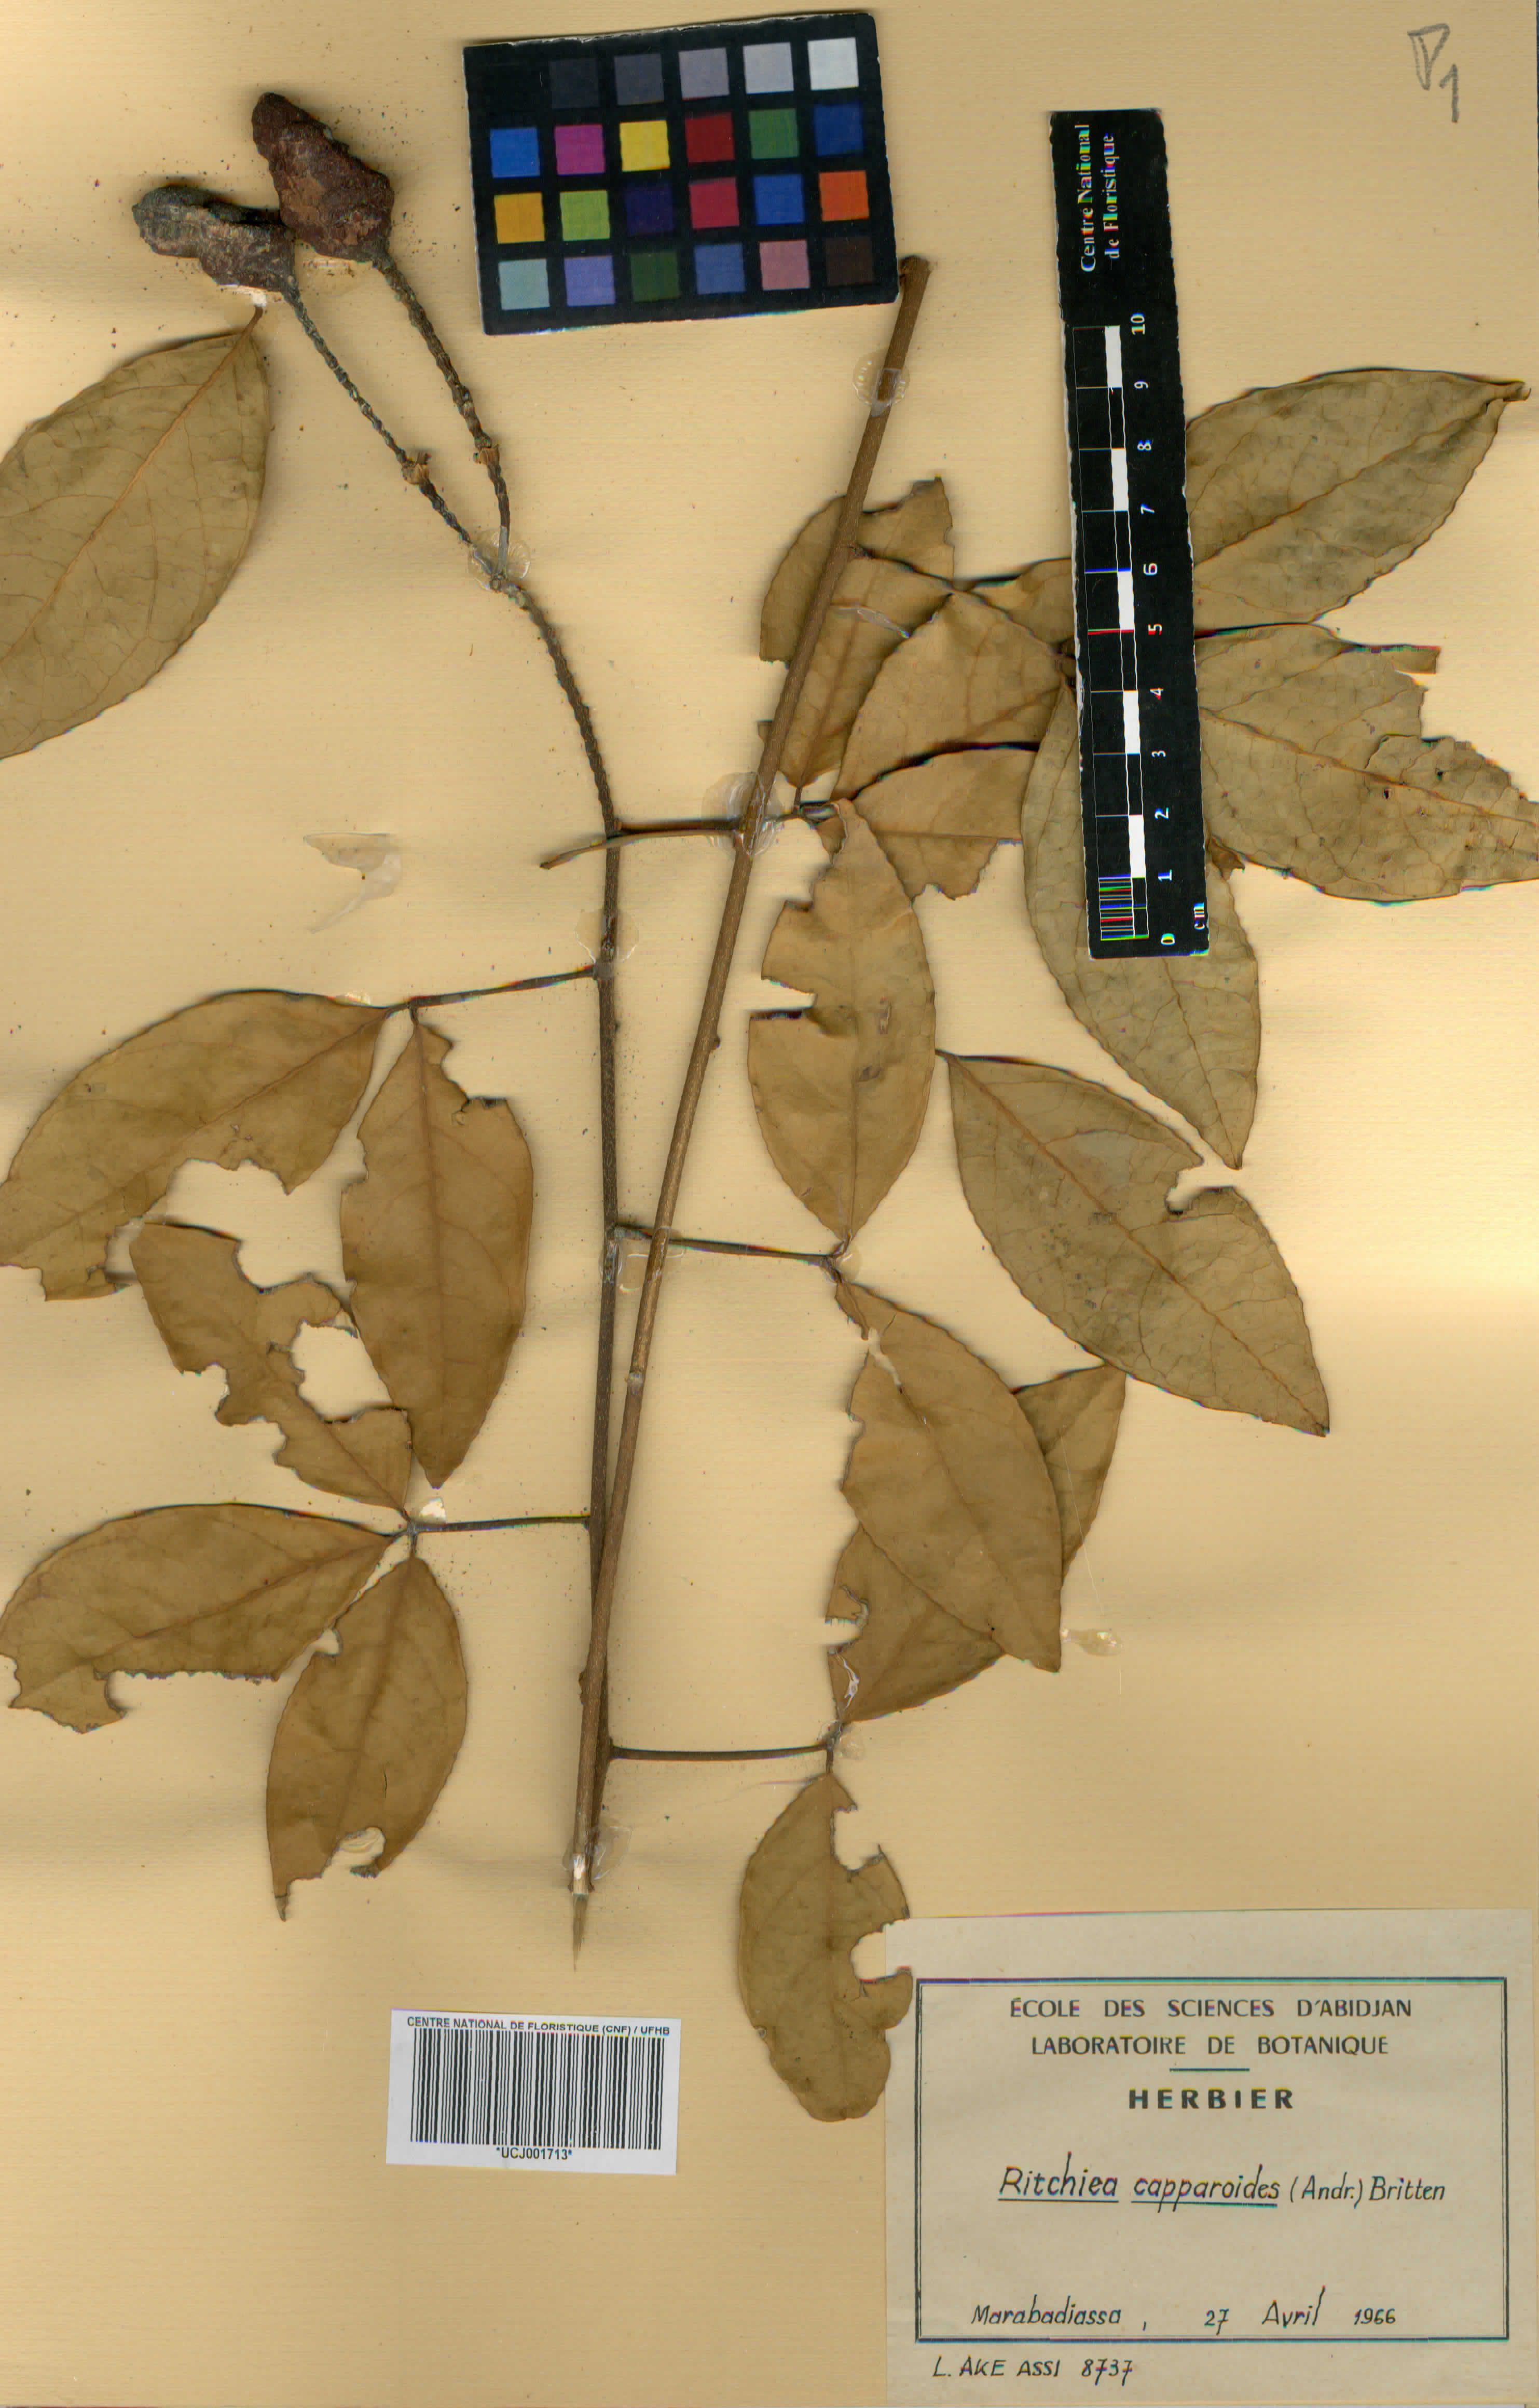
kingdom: Plantae
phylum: Tracheophyta
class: Magnoliopsida
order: Brassicales
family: Capparaceae
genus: Ritchiea
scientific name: Ritchiea capparoides
